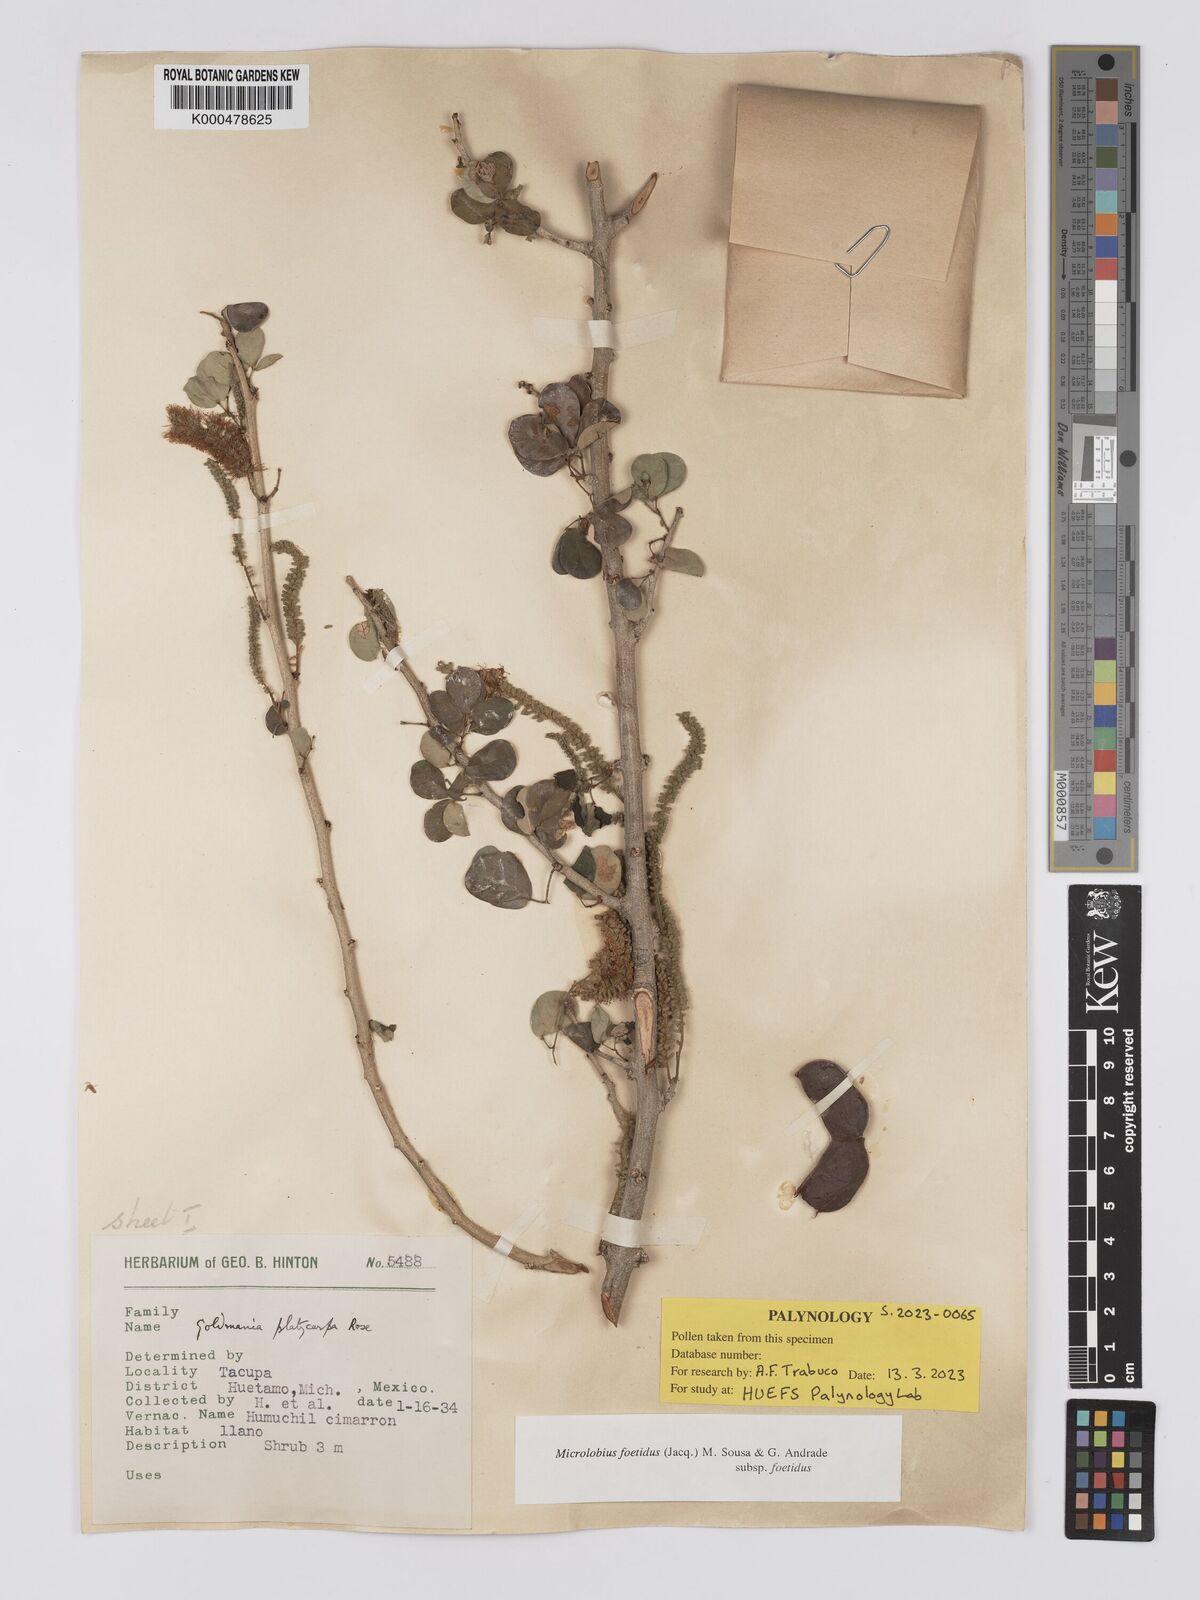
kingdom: Plantae
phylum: Tracheophyta
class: Magnoliopsida
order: Fabales
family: Fabaceae
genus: Microlobius
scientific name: Microlobius foetidus
